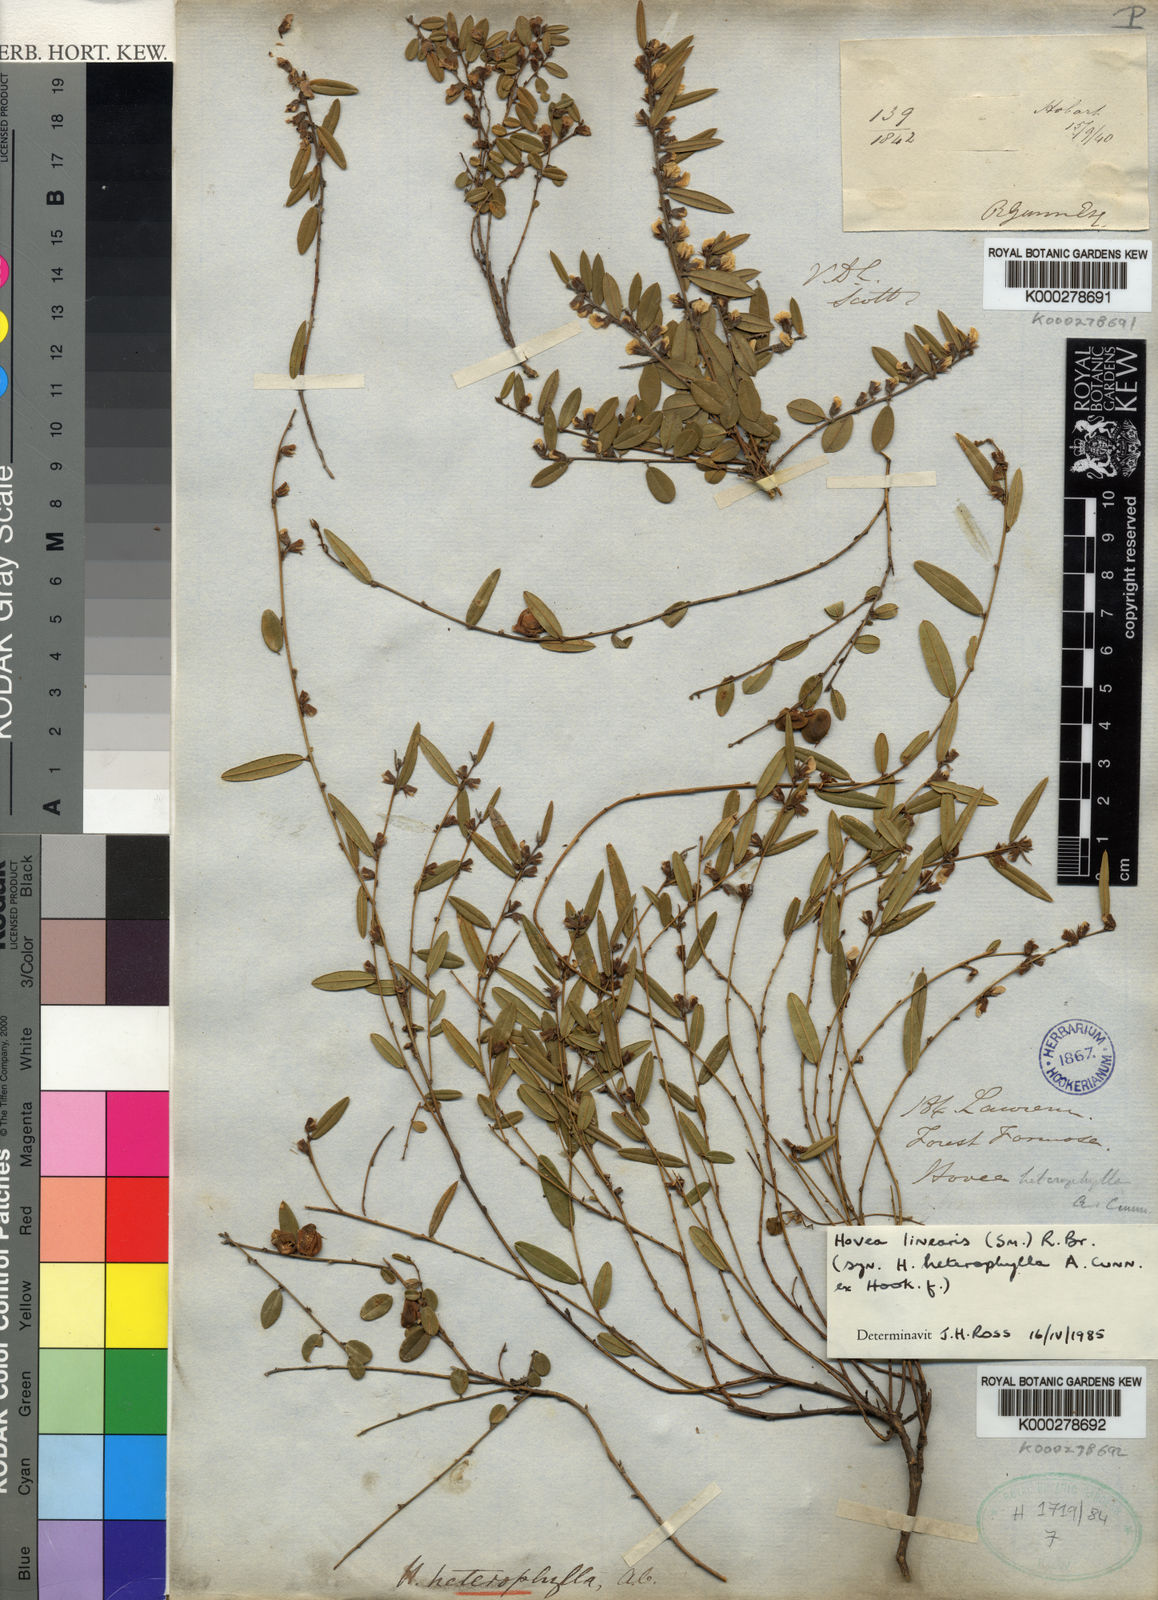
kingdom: Plantae
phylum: Tracheophyta
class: Magnoliopsida
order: Fabales
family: Fabaceae
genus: Hovea
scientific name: Hovea heterophylla
